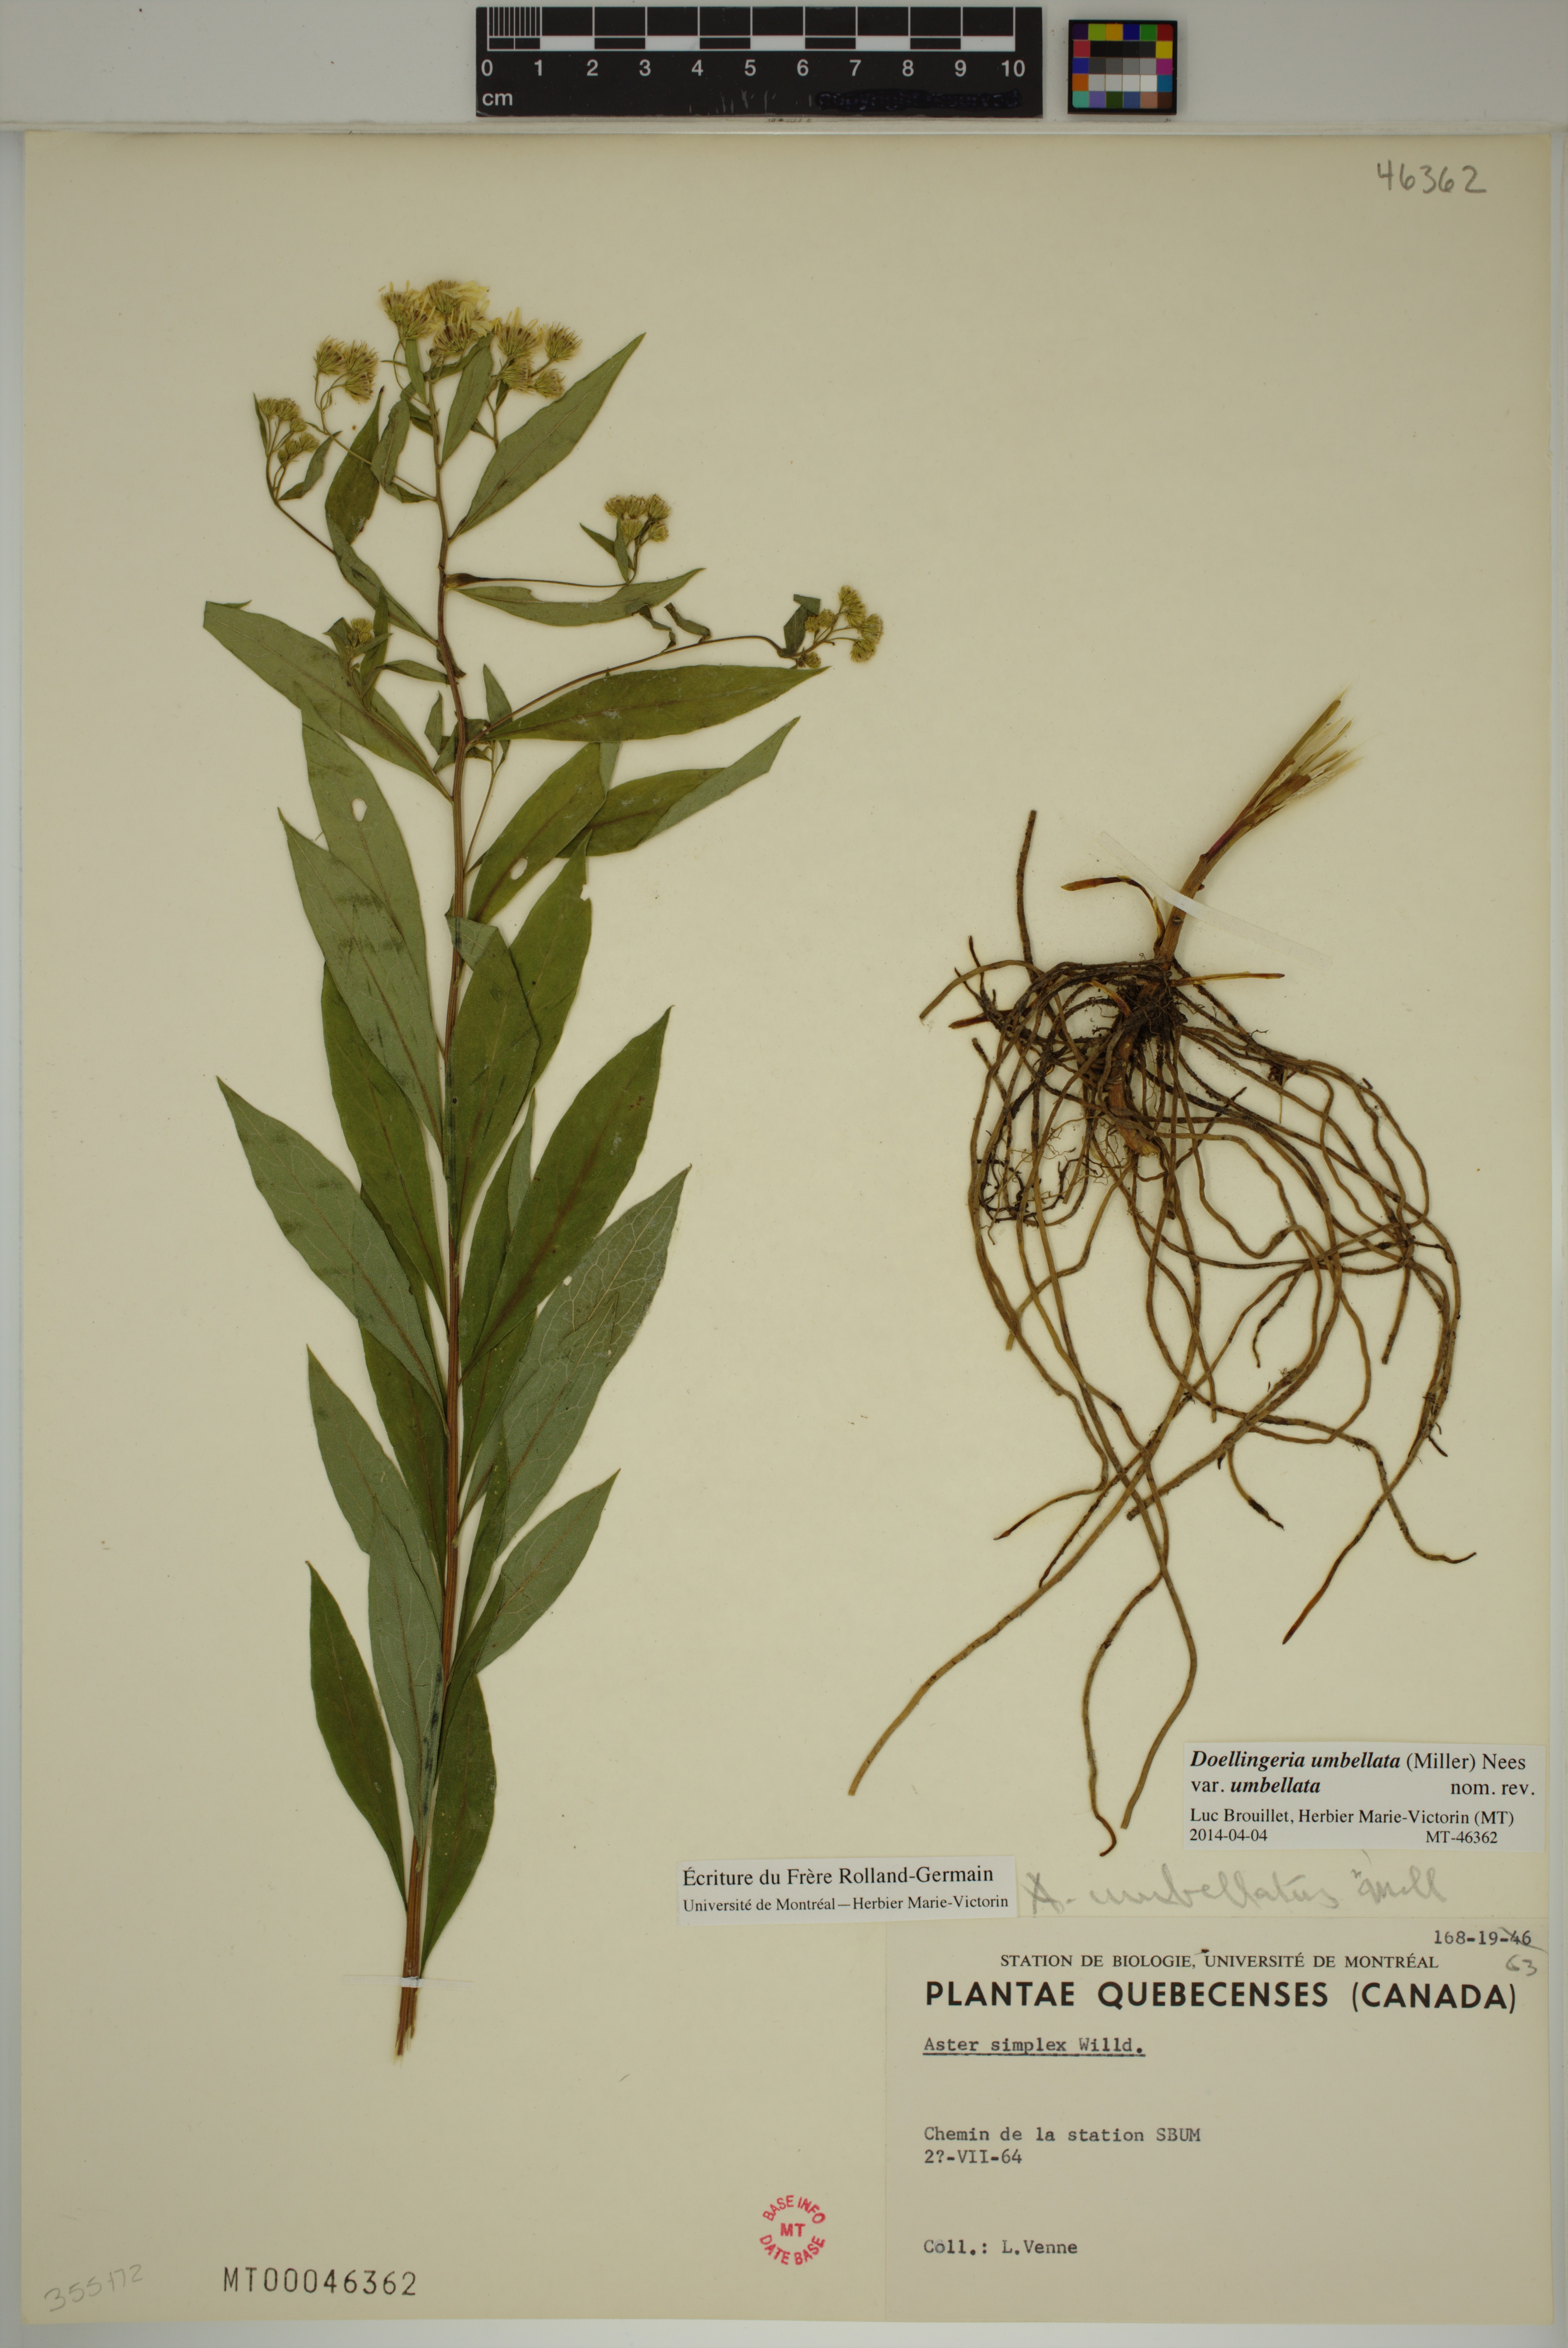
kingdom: Plantae
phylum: Tracheophyta
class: Magnoliopsida
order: Asterales
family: Asteraceae
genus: Doellingeria
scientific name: Doellingeria umbellata
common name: Flat-top white aster
